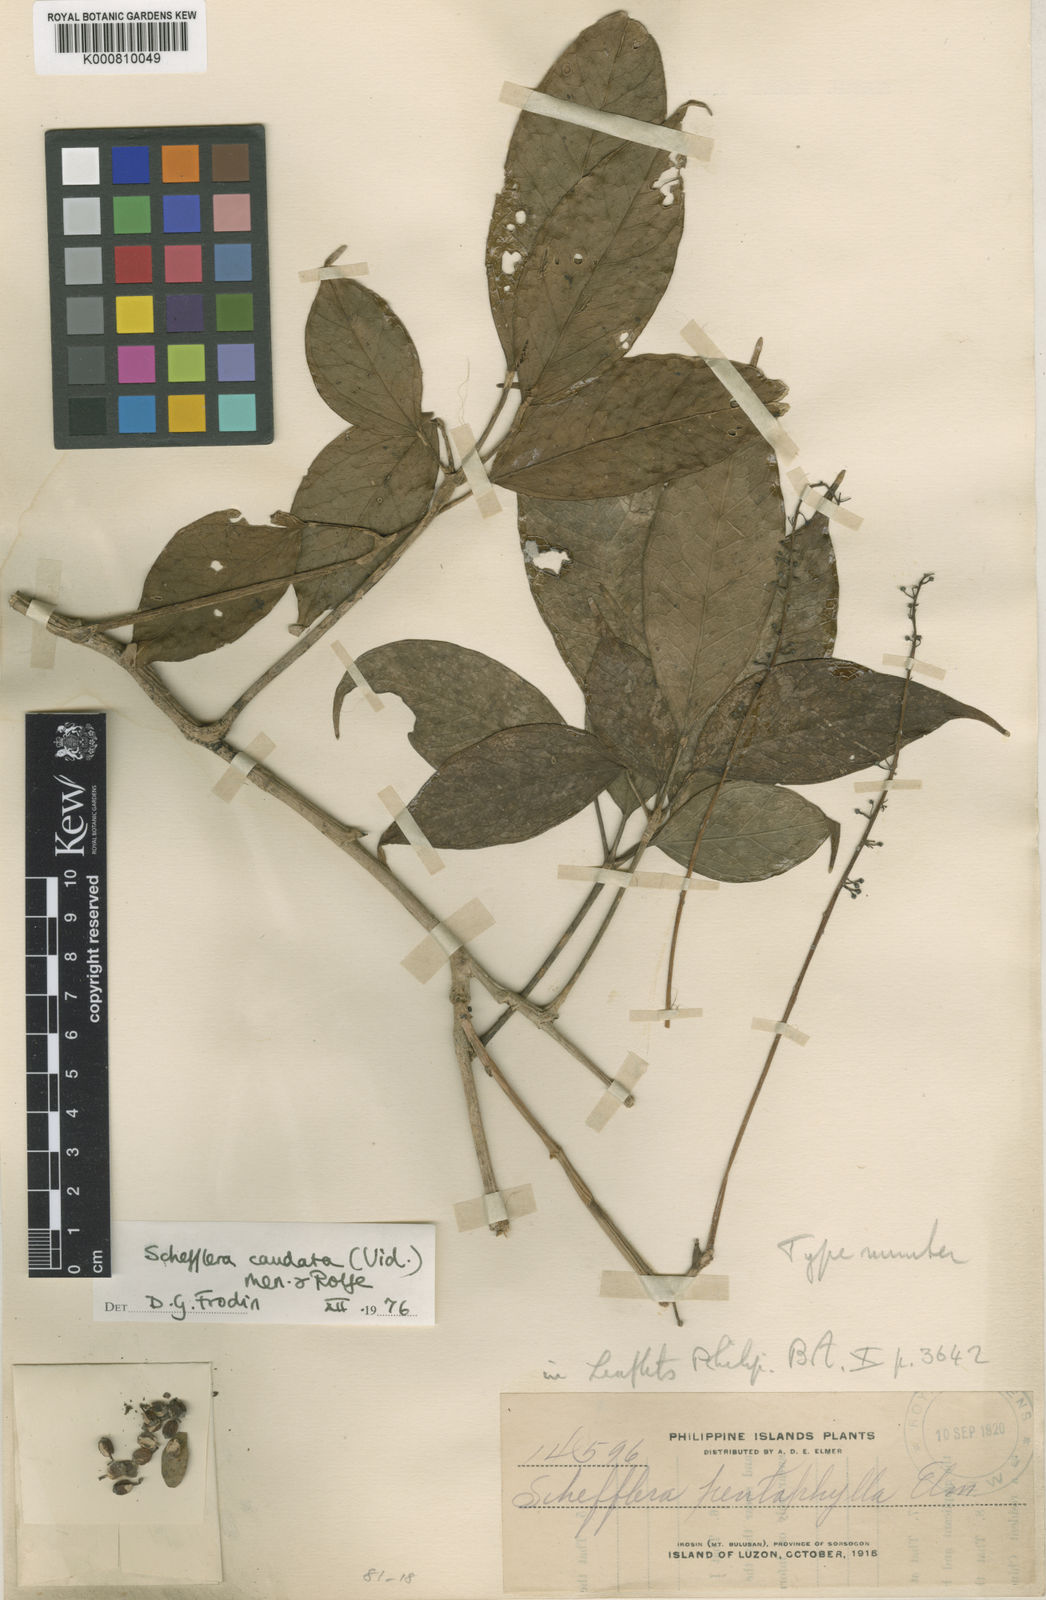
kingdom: Plantae
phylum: Tracheophyta
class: Magnoliopsida
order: Apiales
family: Araliaceae
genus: Heptapleurum
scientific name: Heptapleurum caudatum
